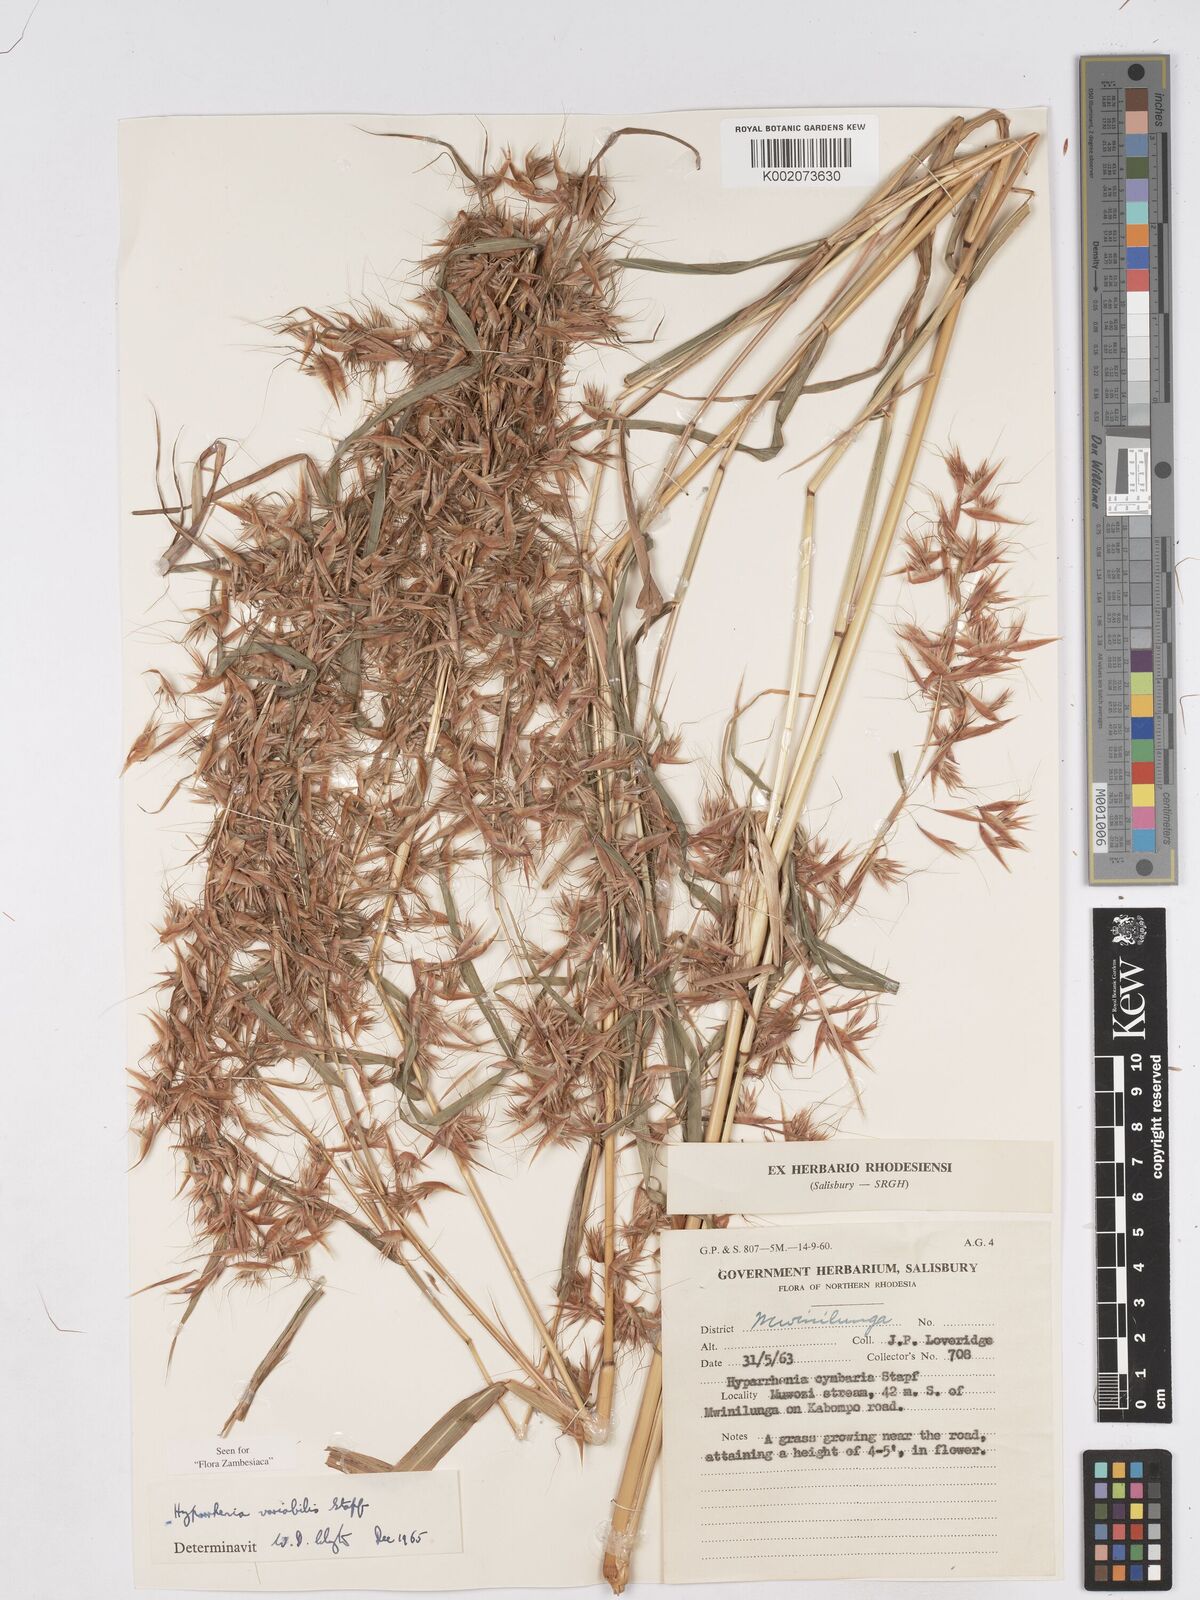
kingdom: Plantae
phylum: Tracheophyta
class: Liliopsida
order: Poales
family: Poaceae
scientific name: Poaceae
